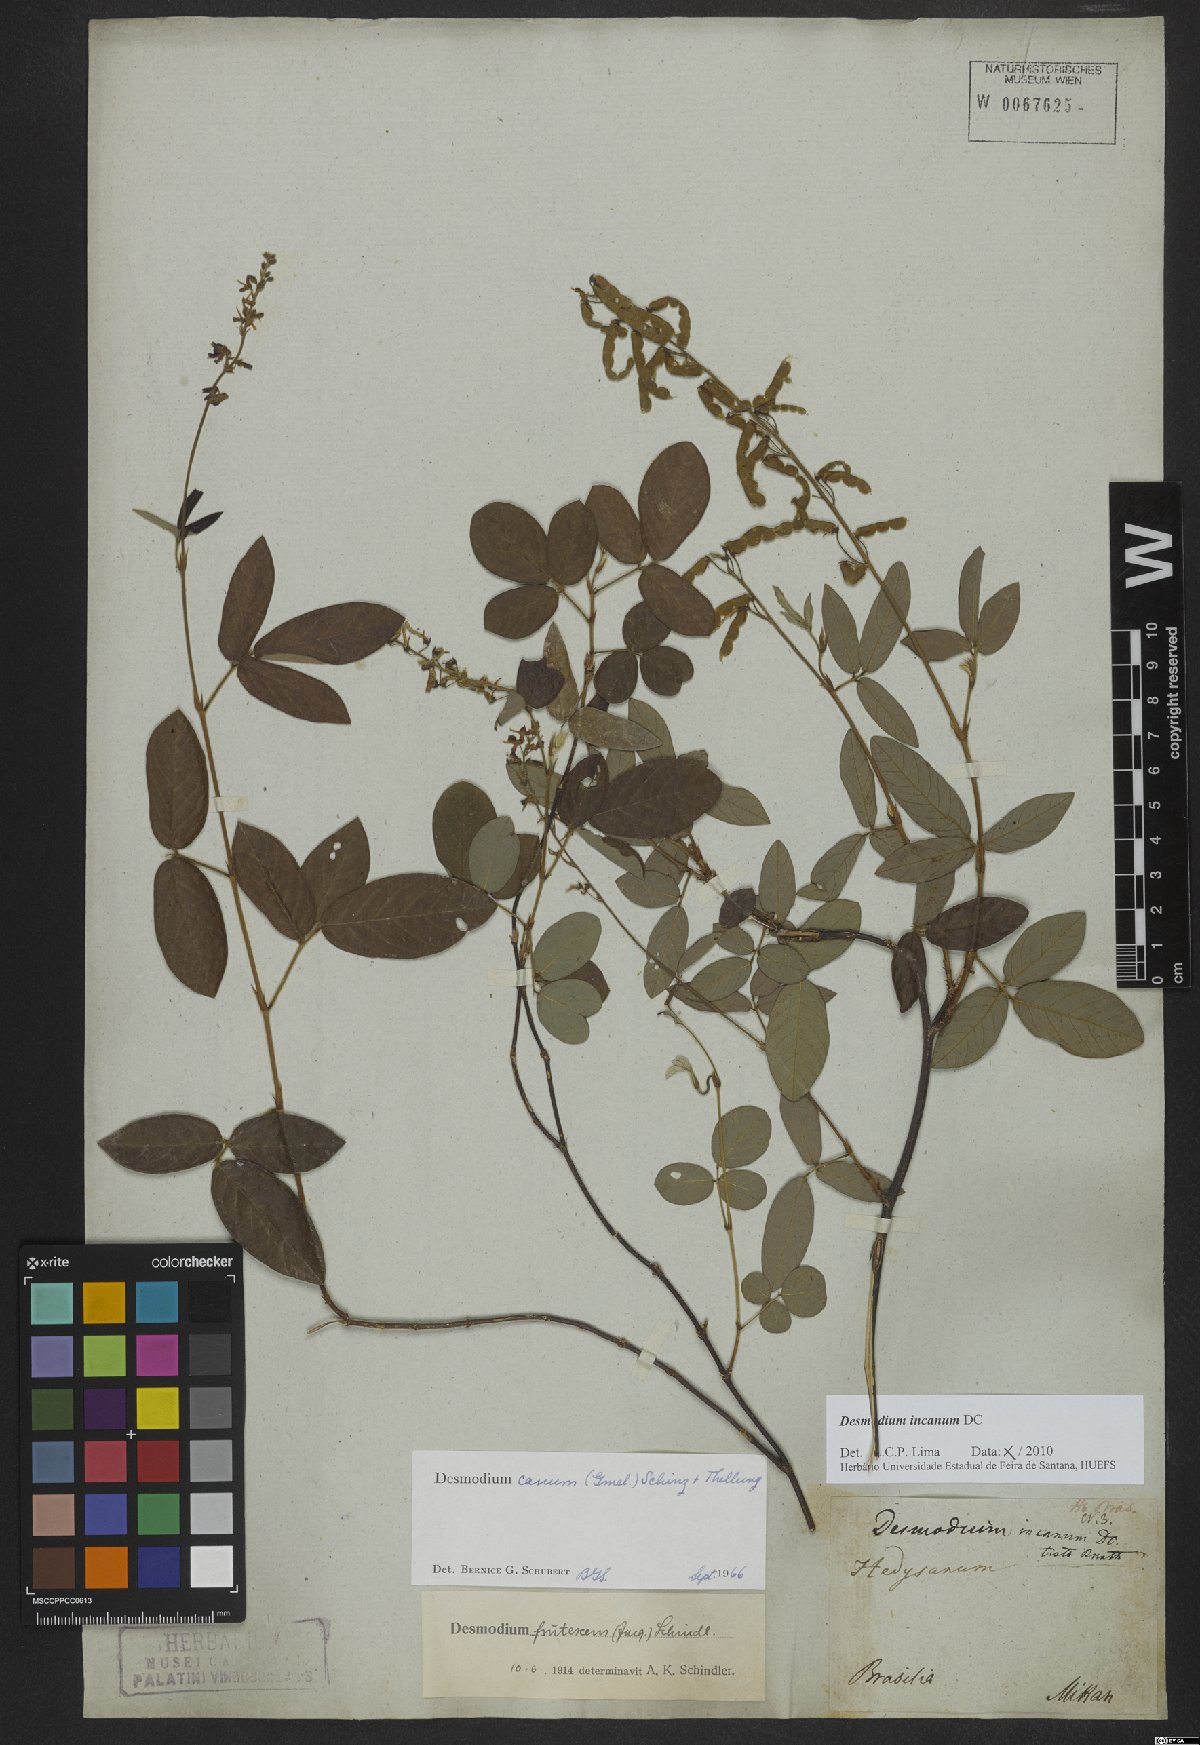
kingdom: Plantae
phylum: Tracheophyta
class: Magnoliopsida
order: Fabales
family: Fabaceae
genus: Desmodium
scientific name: Desmodium incanum
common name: Tickclover
